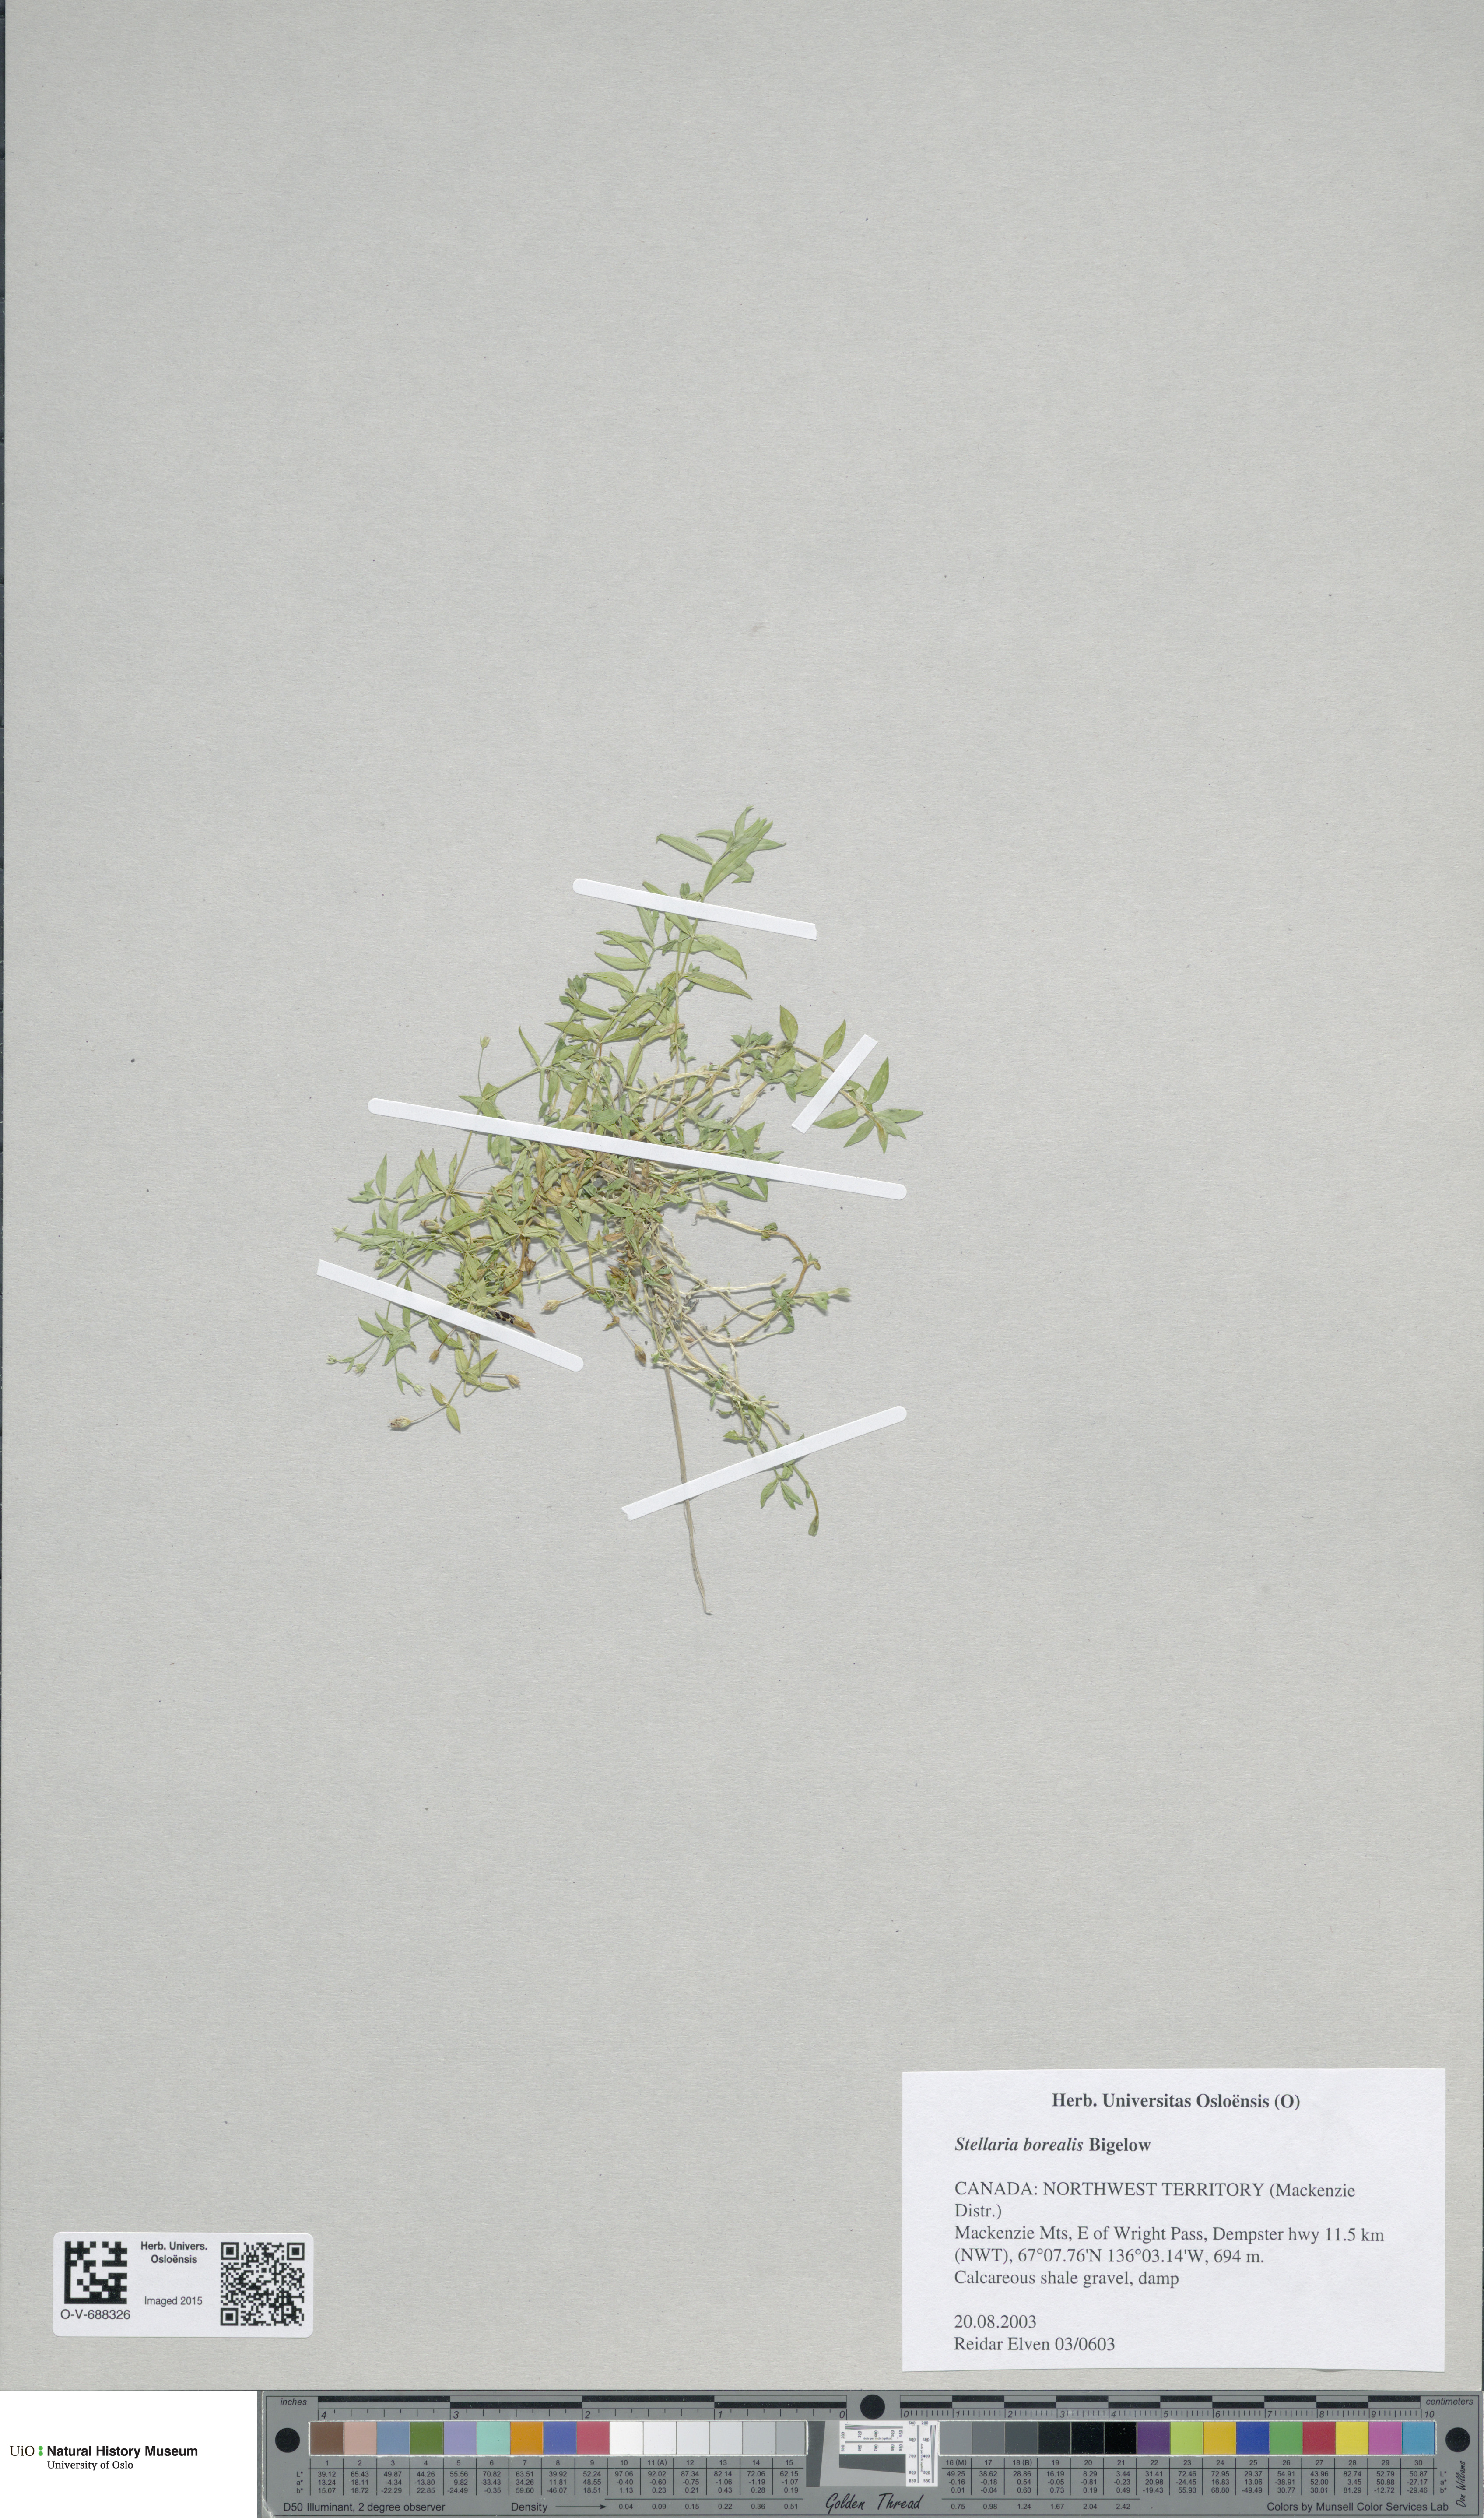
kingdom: Plantae
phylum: Tracheophyta
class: Magnoliopsida
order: Caryophyllales
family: Caryophyllaceae
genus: Stellaria
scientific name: Stellaria borealis
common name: Boreal starwort
